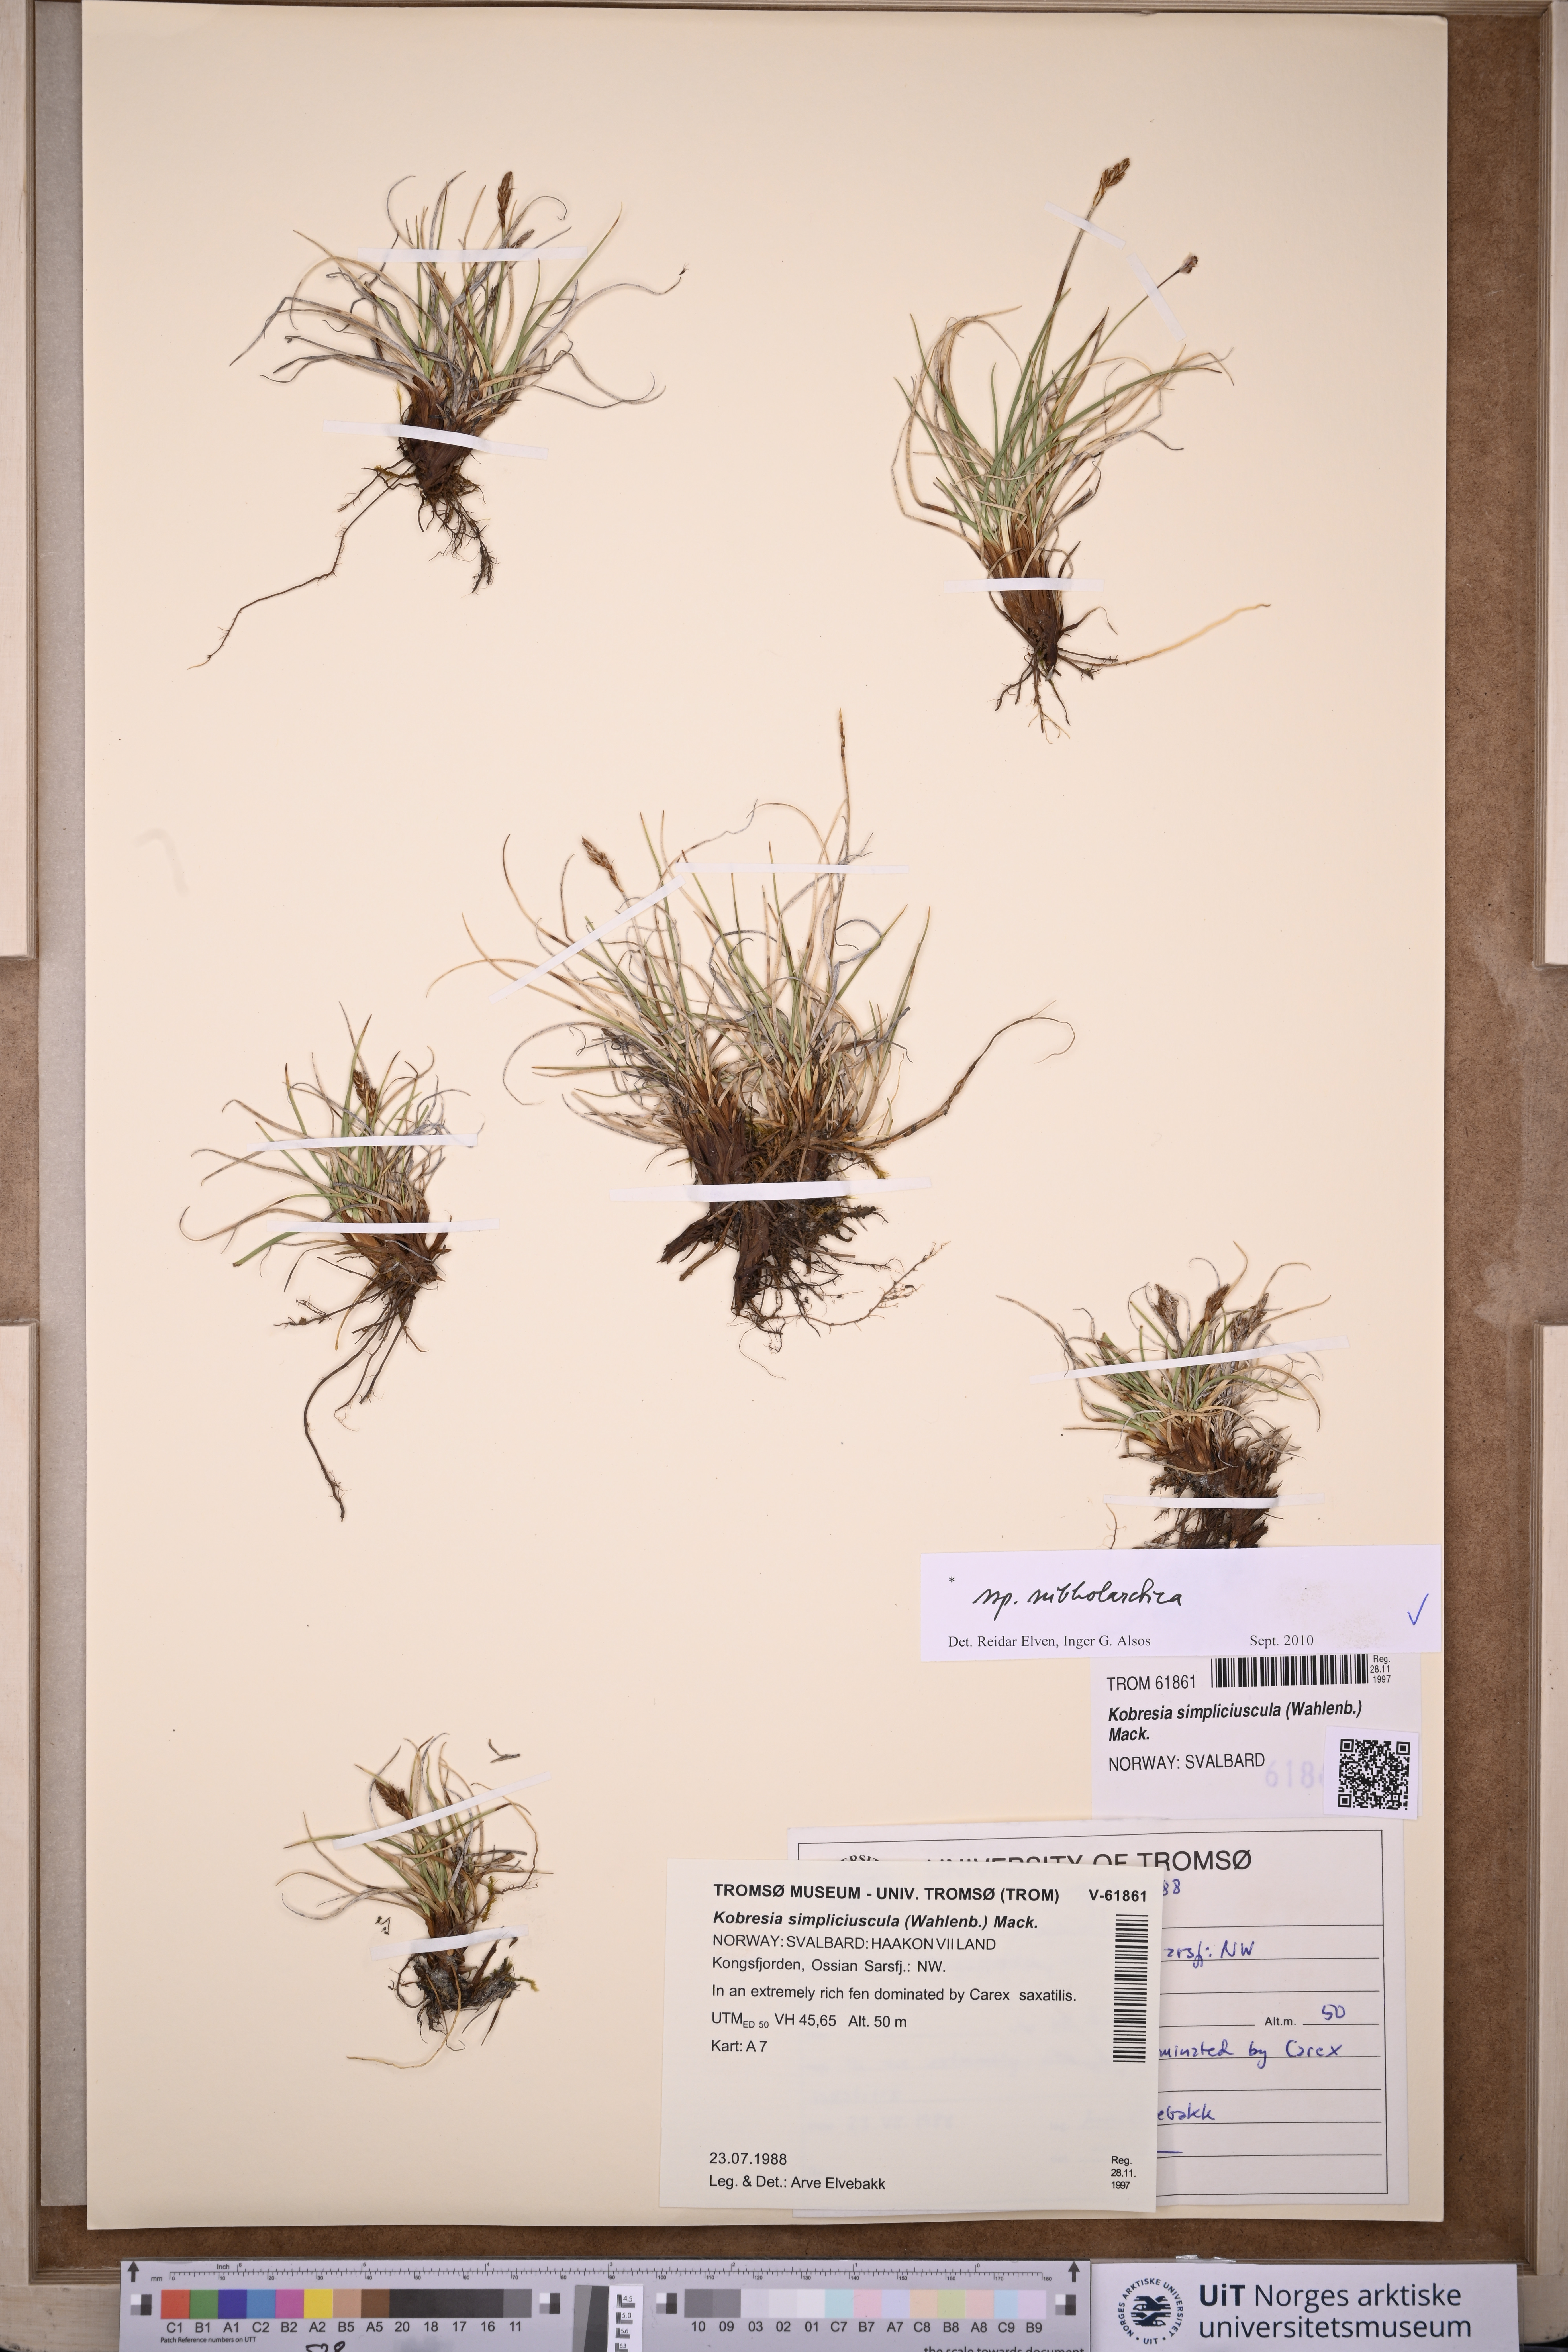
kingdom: Plantae
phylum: Tracheophyta
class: Liliopsida
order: Poales
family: Cyperaceae
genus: Carex
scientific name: Carex simpliciuscula
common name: Simple bog sedge
